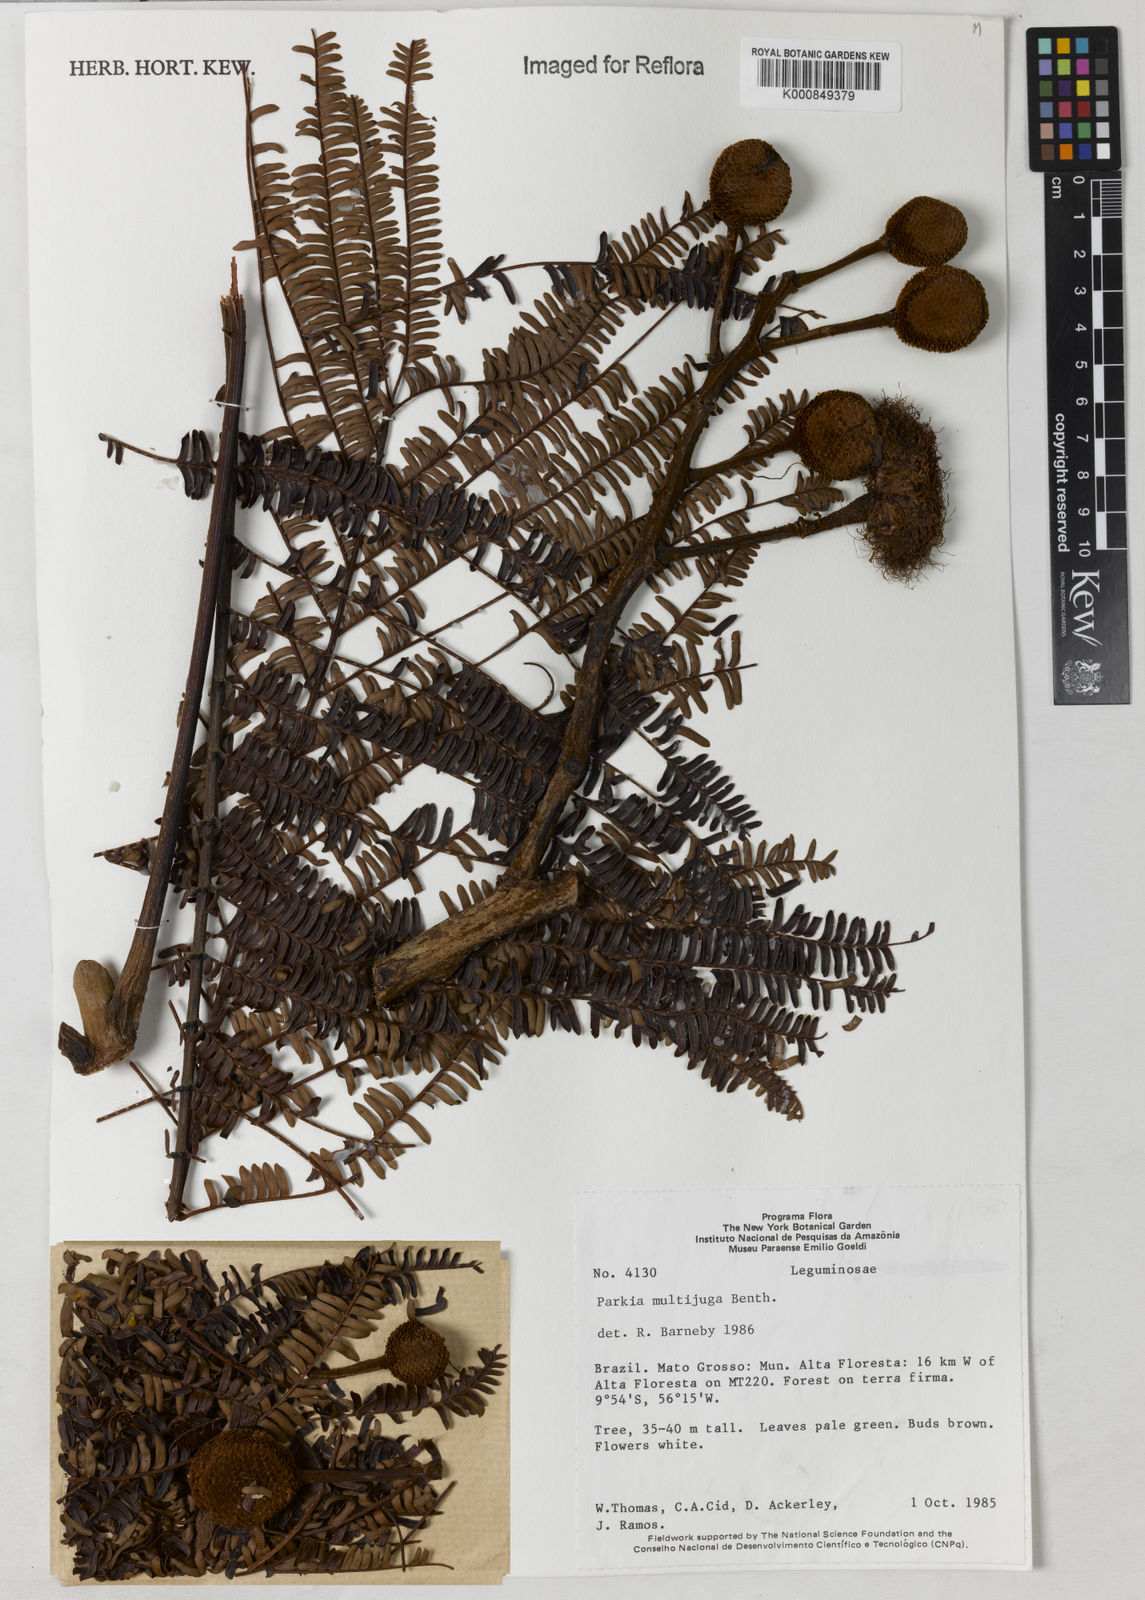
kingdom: Plantae
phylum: Tracheophyta
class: Magnoliopsida
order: Fabales
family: Fabaceae
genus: Parkia
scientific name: Parkia multijuga
